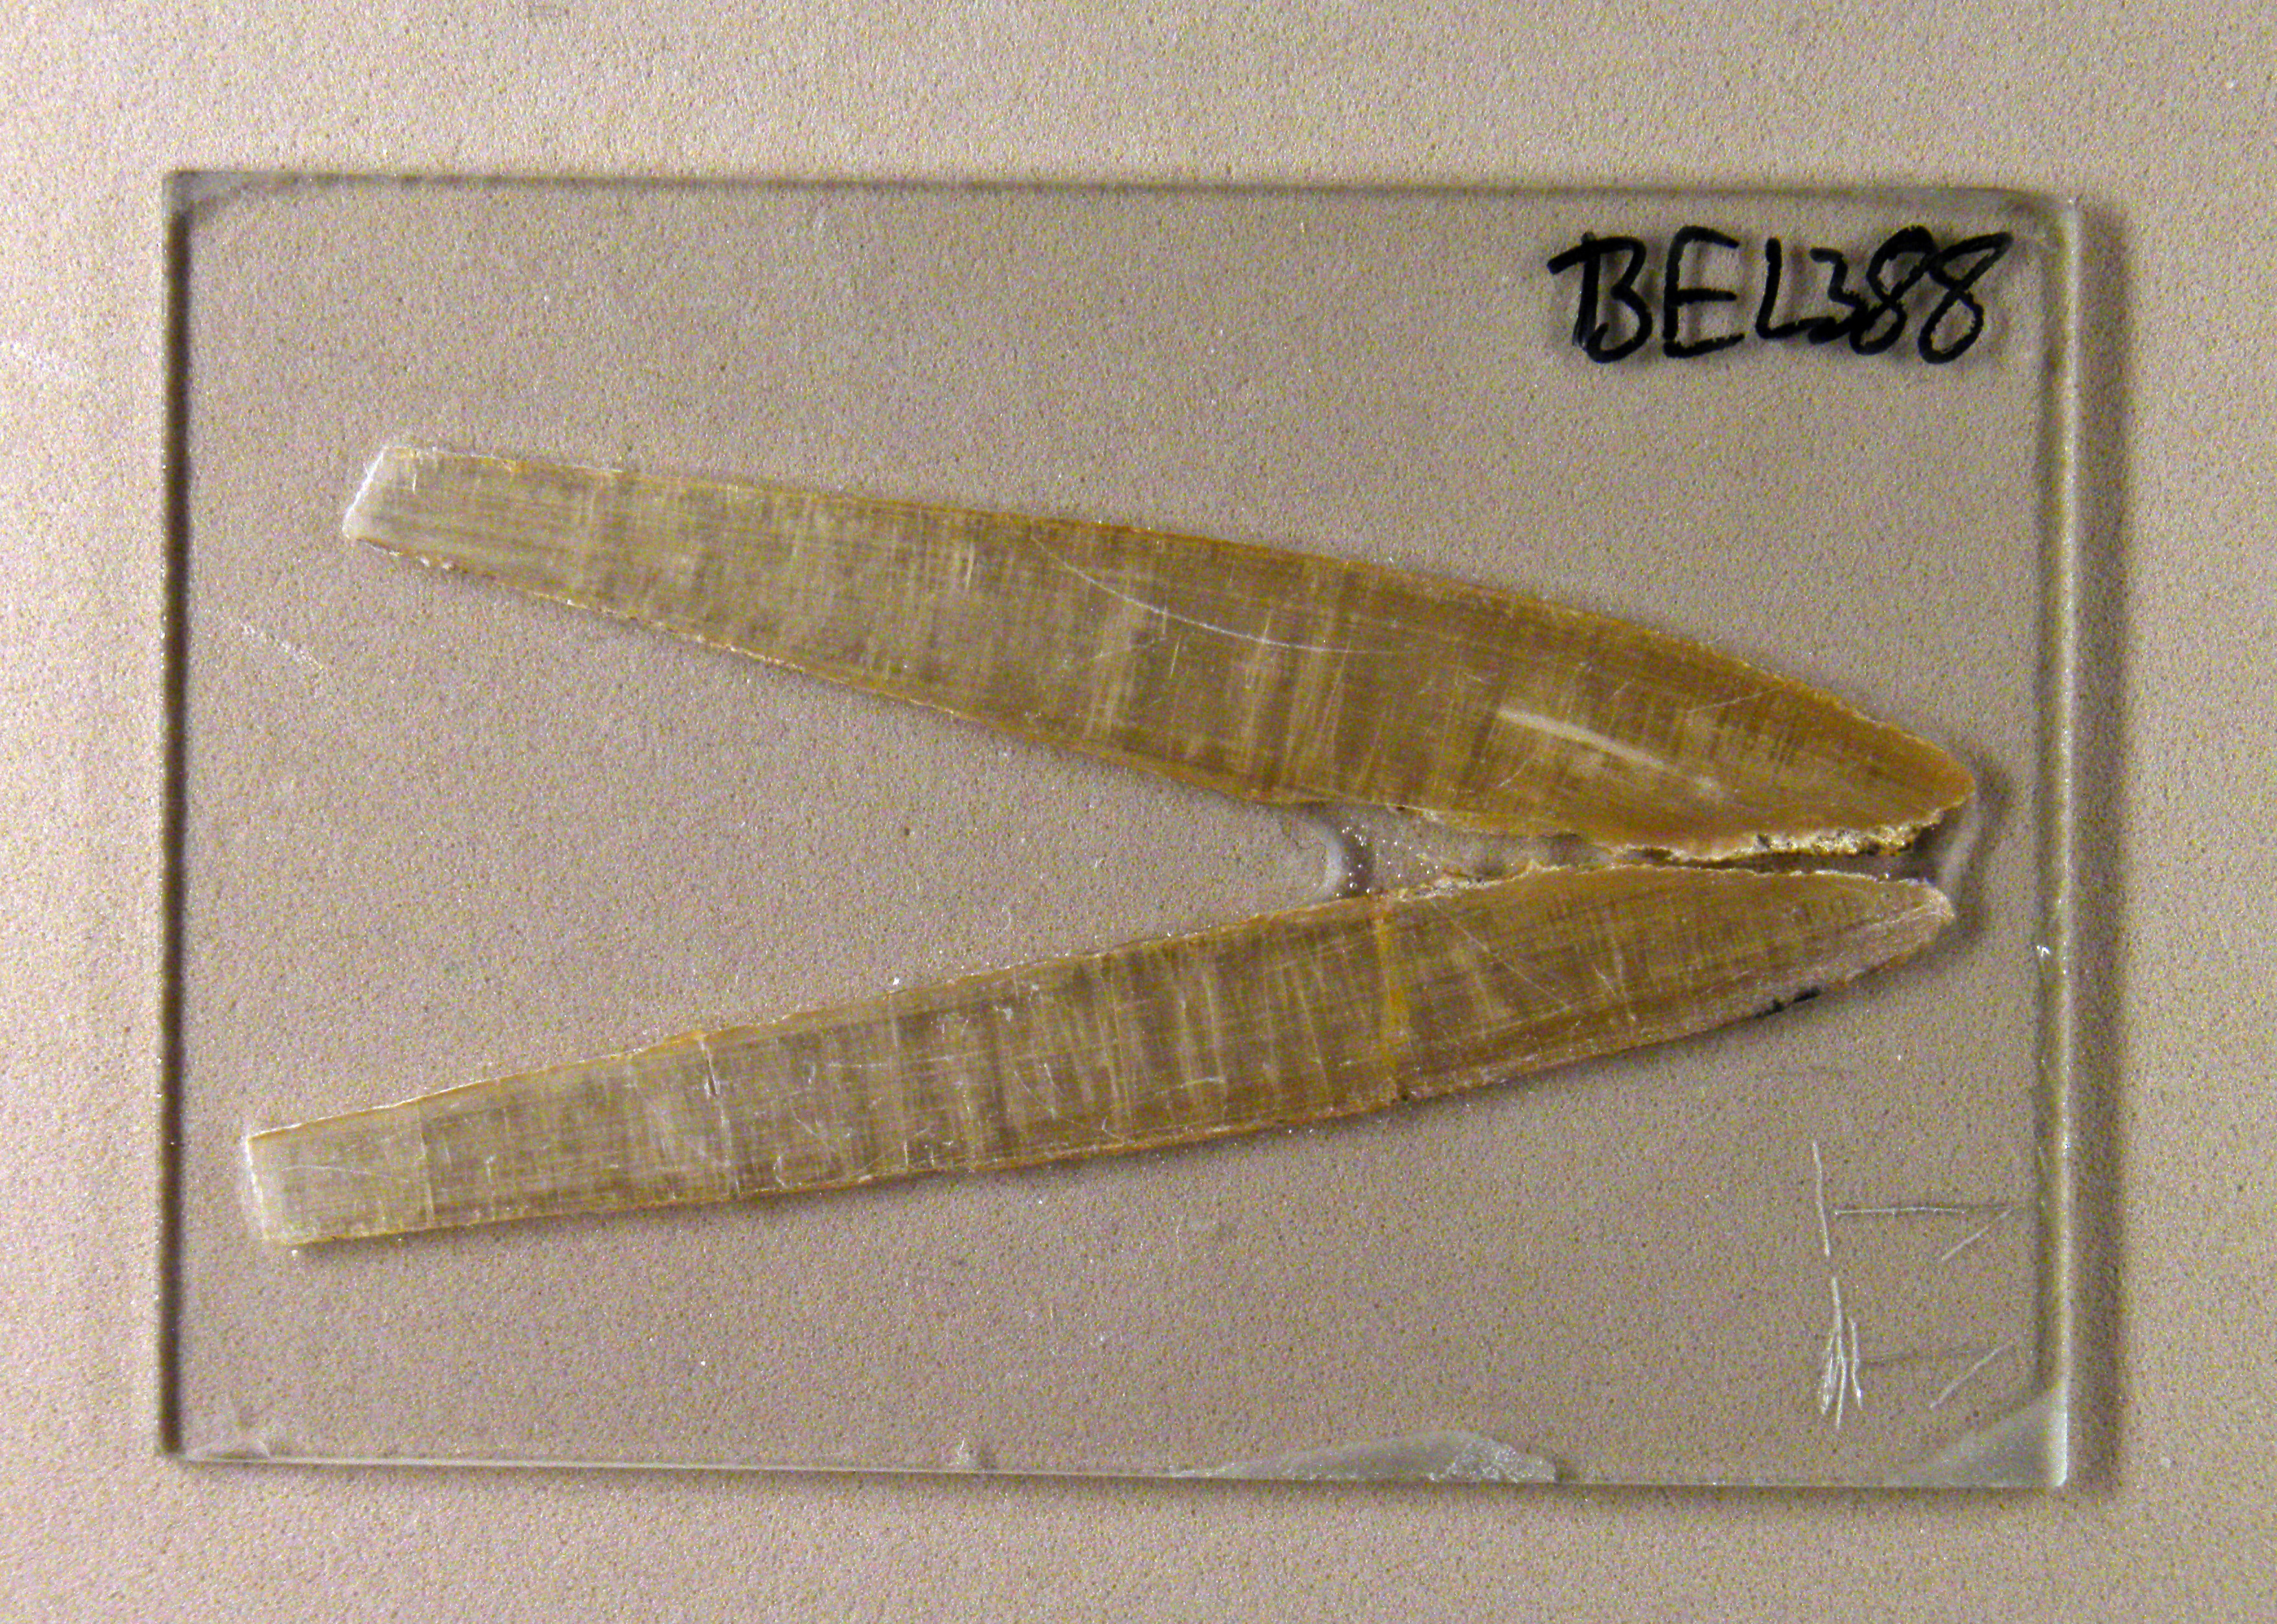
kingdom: Animalia
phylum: Mollusca
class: Cephalopoda
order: Belemnitida
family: Megateuthididae
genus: Acrocoelites
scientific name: Acrocoelites
